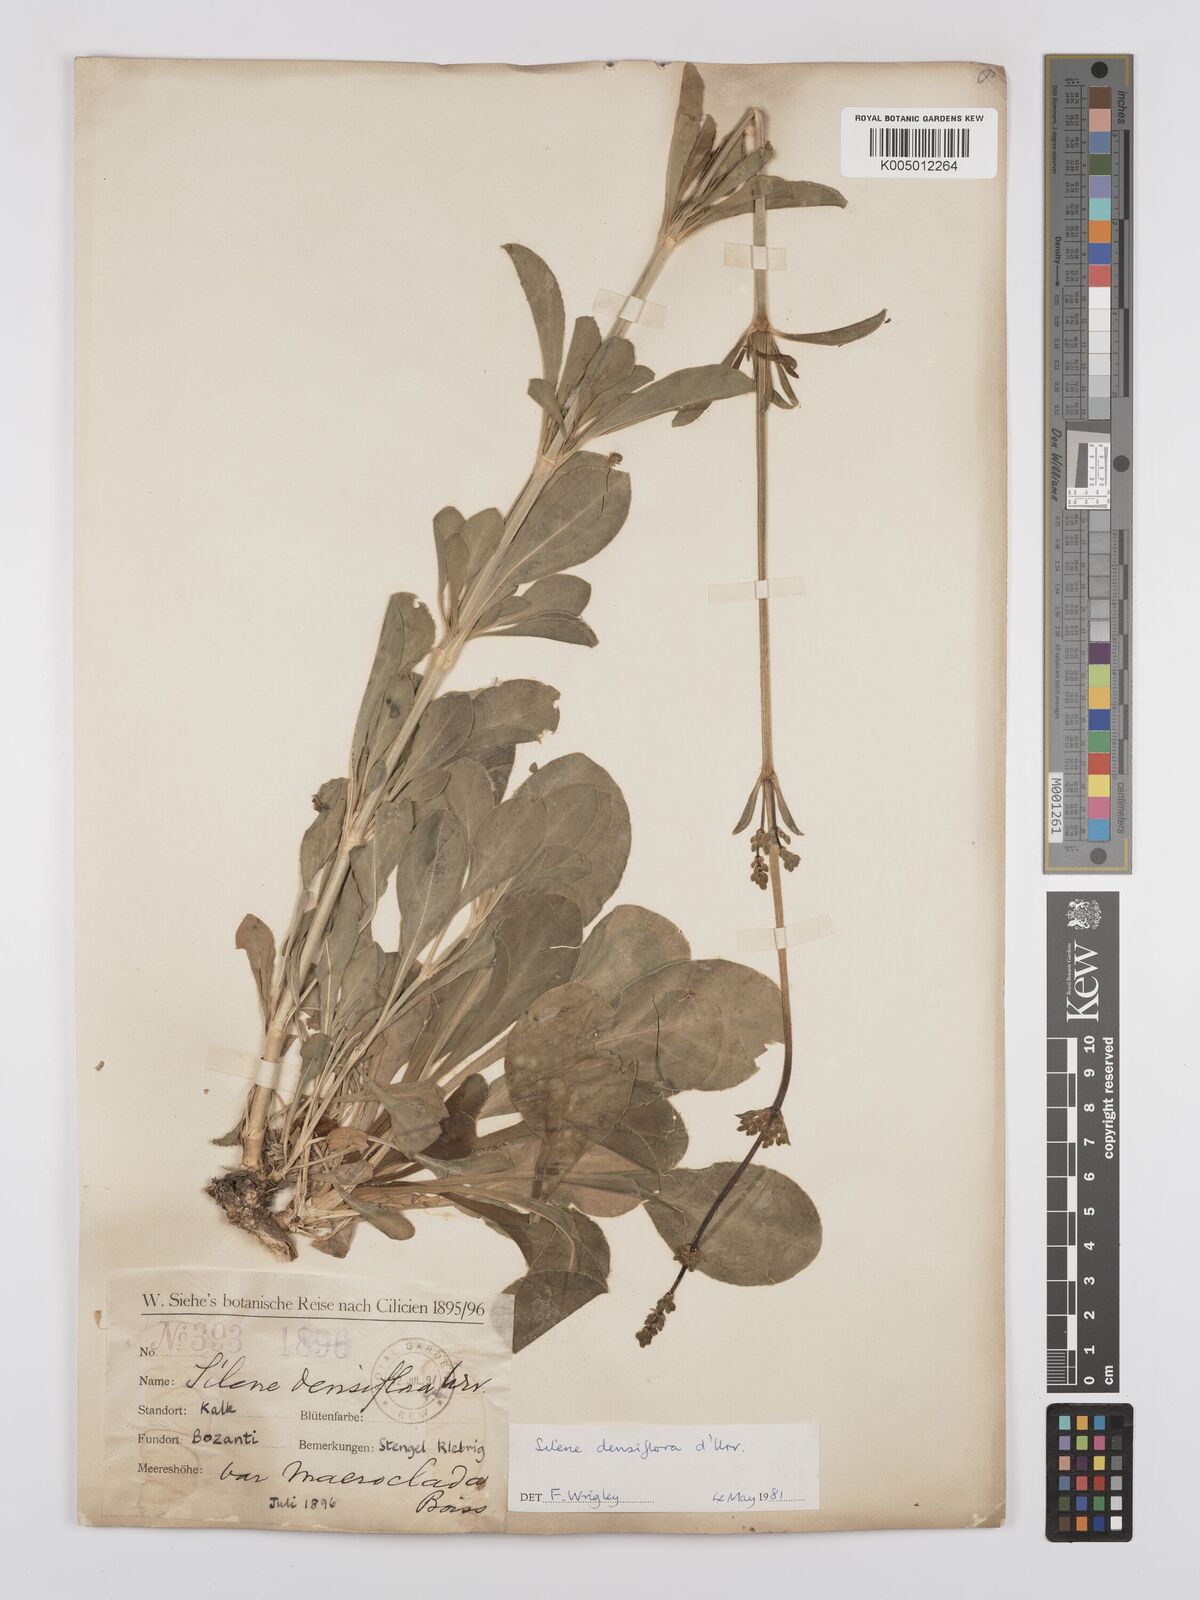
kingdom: Plantae
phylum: Tracheophyta
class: Magnoliopsida
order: Caryophyllales
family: Caryophyllaceae
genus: Silene
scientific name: Silene densiflora
